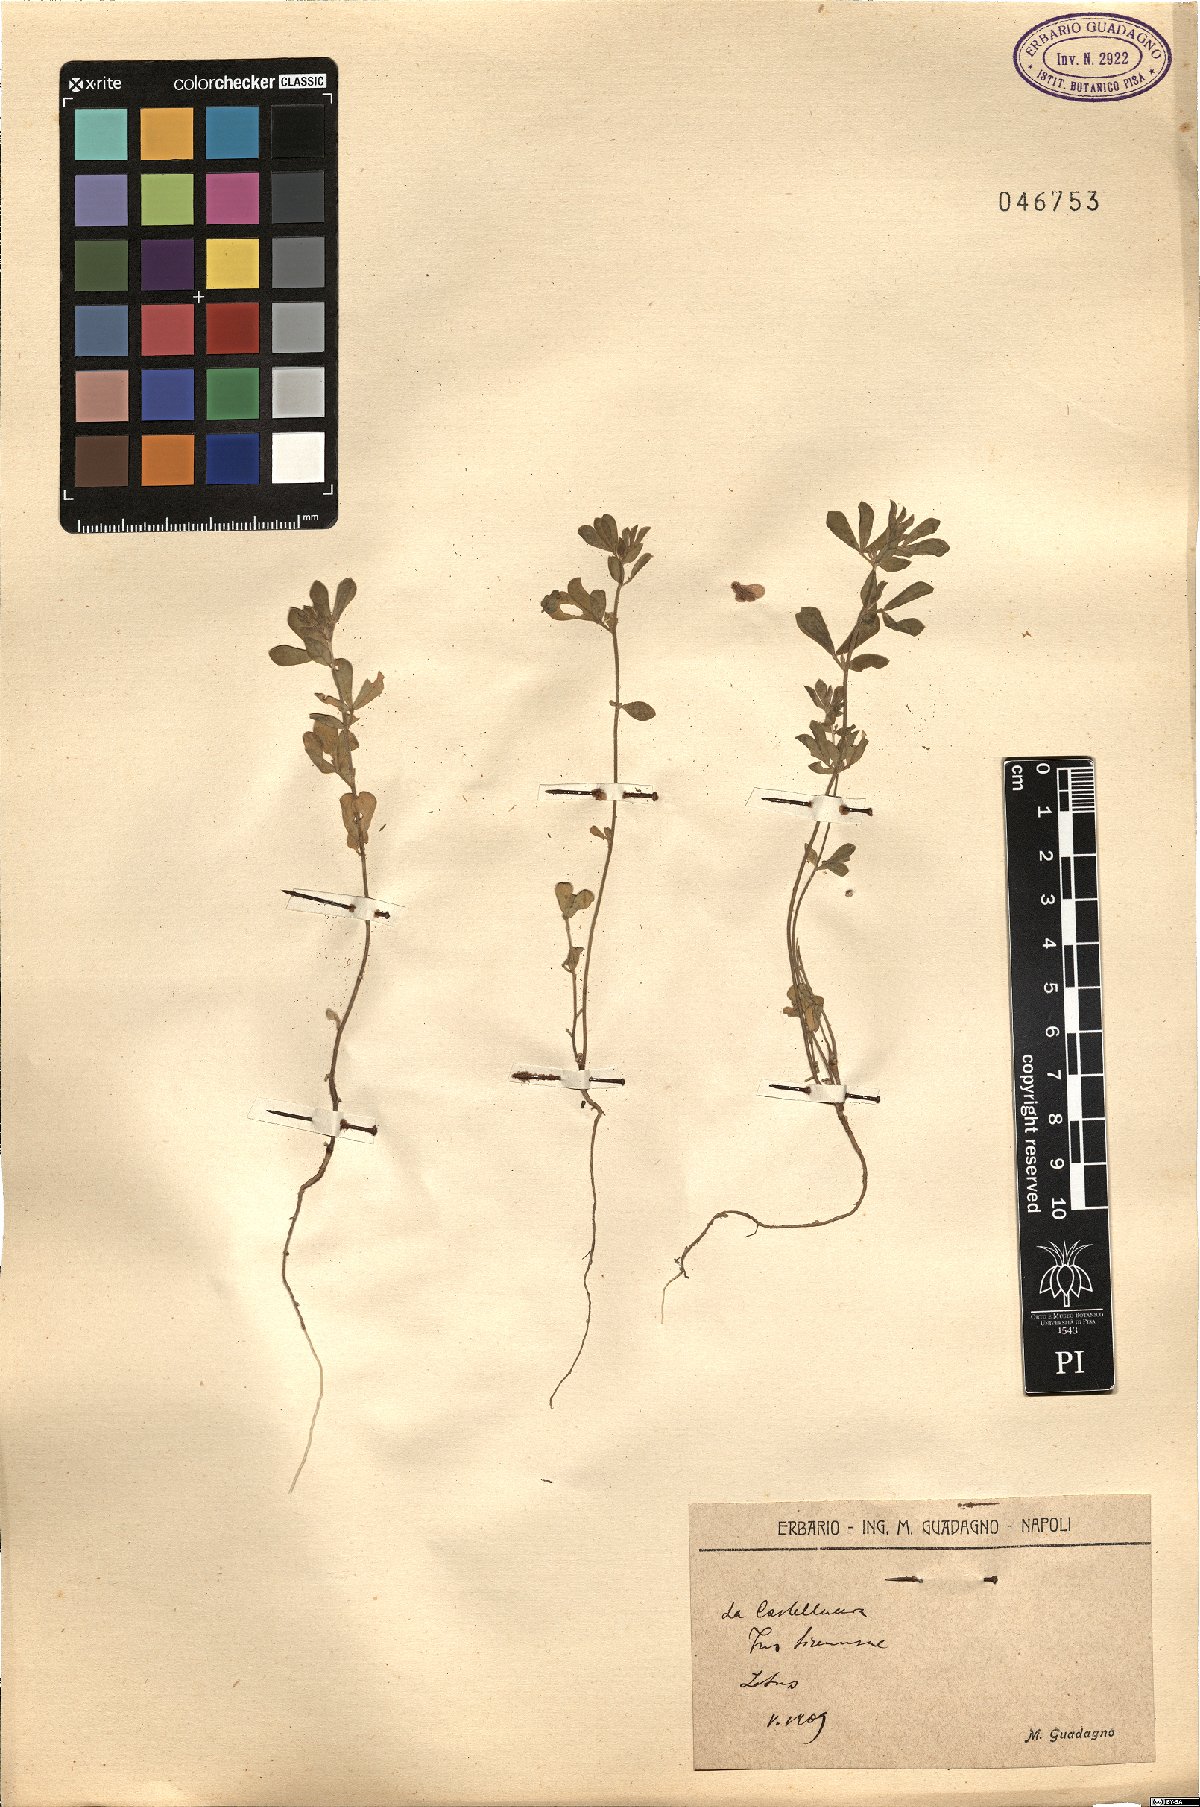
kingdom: Plantae
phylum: Tracheophyta
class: Magnoliopsida
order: Fabales
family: Fabaceae
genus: Lotus
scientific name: Lotus
